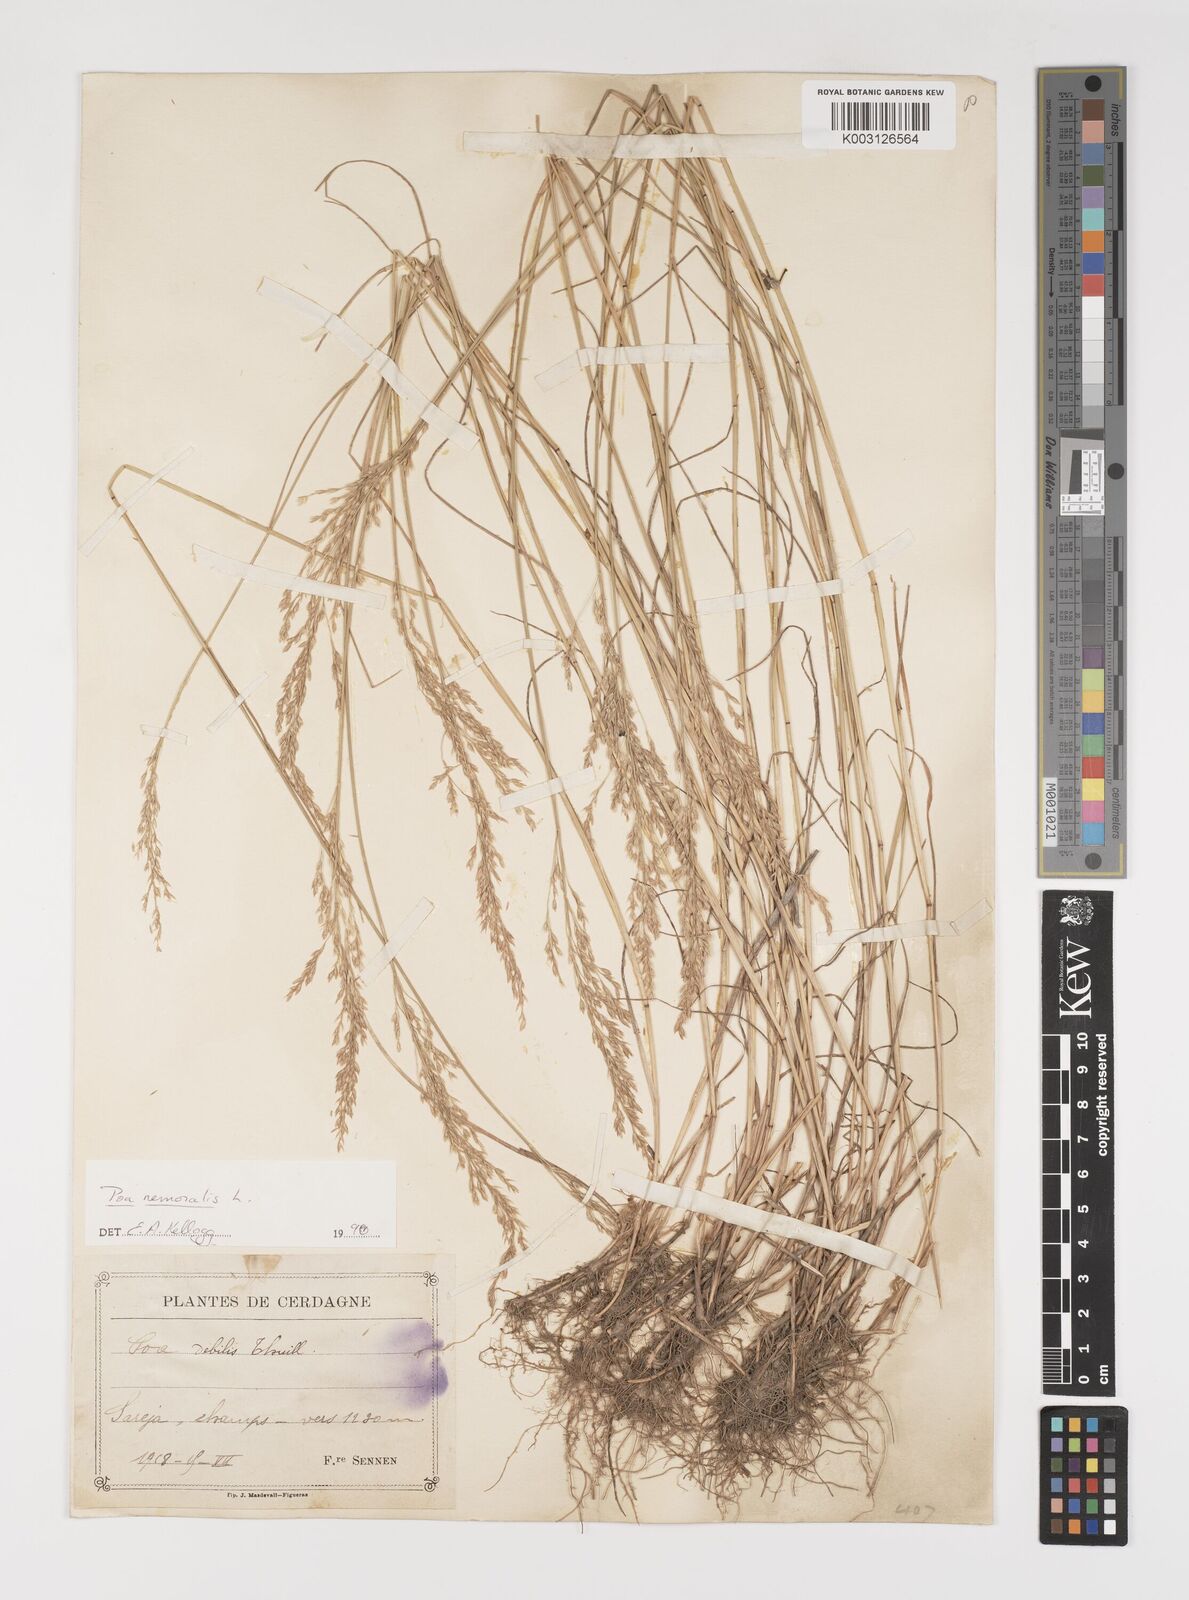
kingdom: Plantae
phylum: Tracheophyta
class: Liliopsida
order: Poales
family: Poaceae
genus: Poa
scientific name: Poa nemoralis
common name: Wood bluegrass
